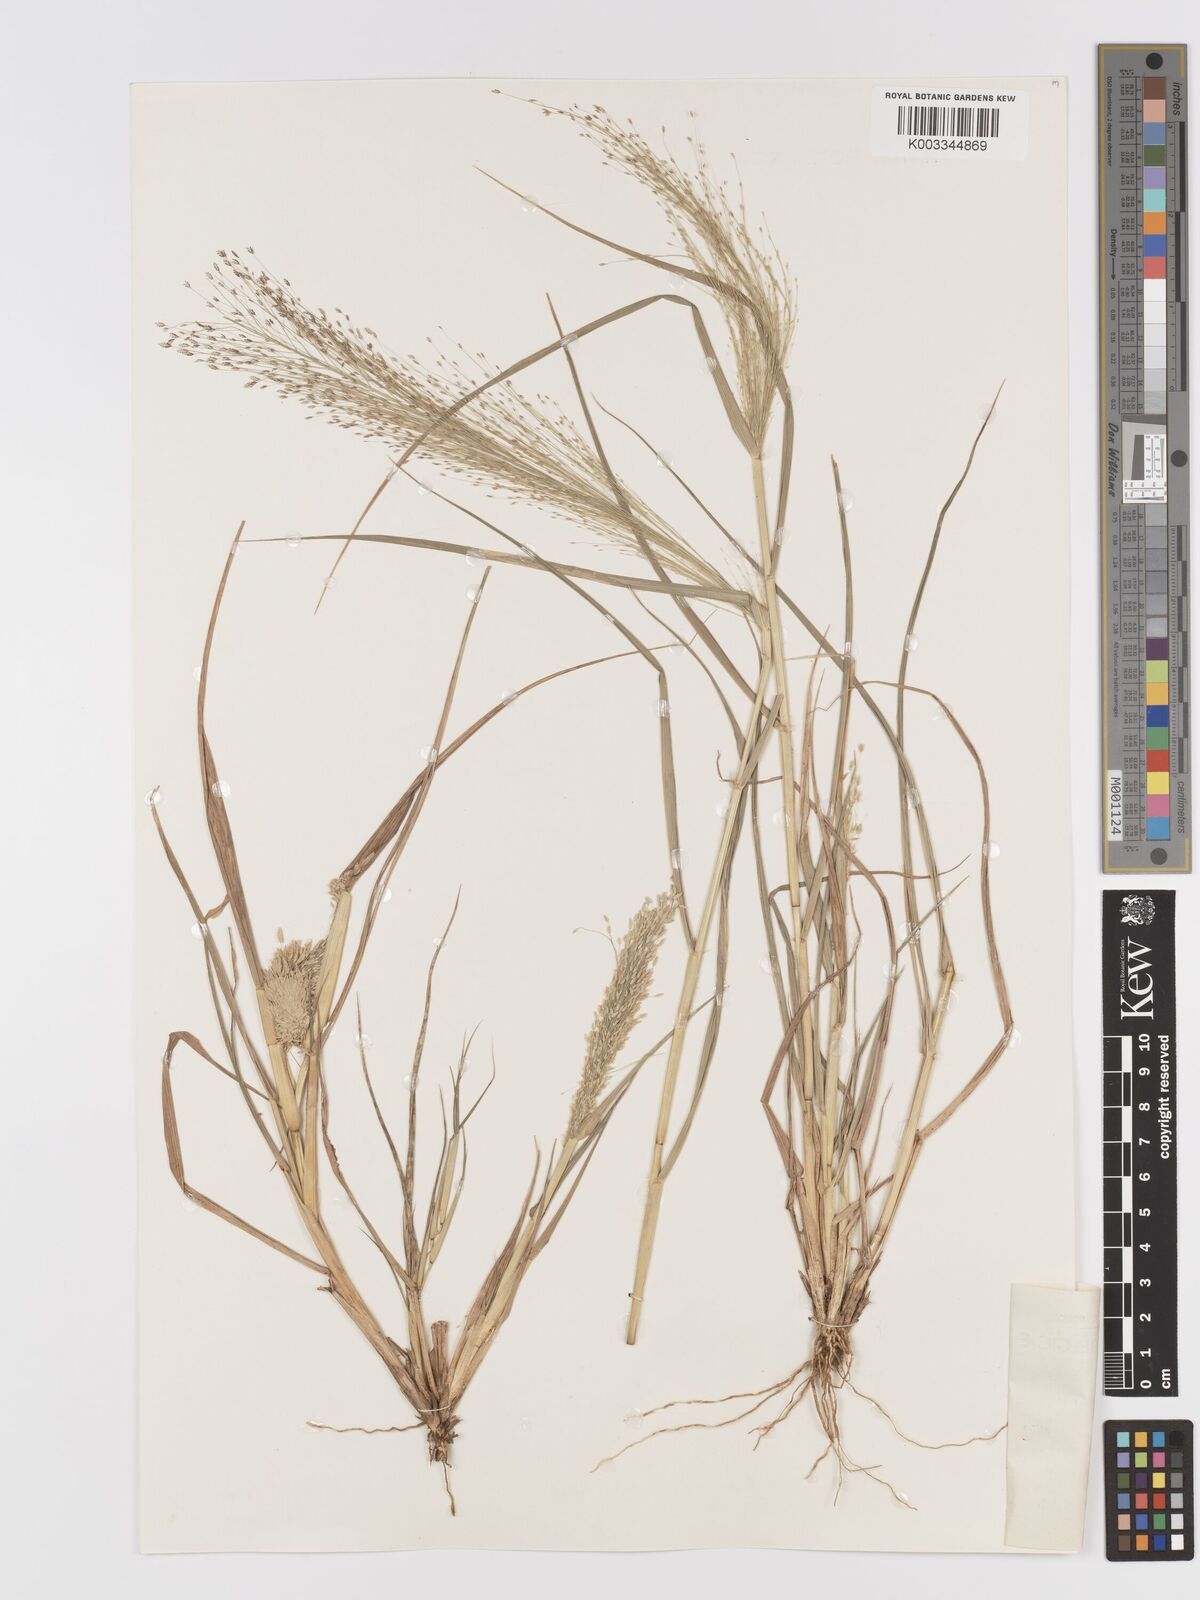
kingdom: Plantae
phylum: Tracheophyta
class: Liliopsida
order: Poales
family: Poaceae
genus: Eragrostis
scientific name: Eragrostis aspera
